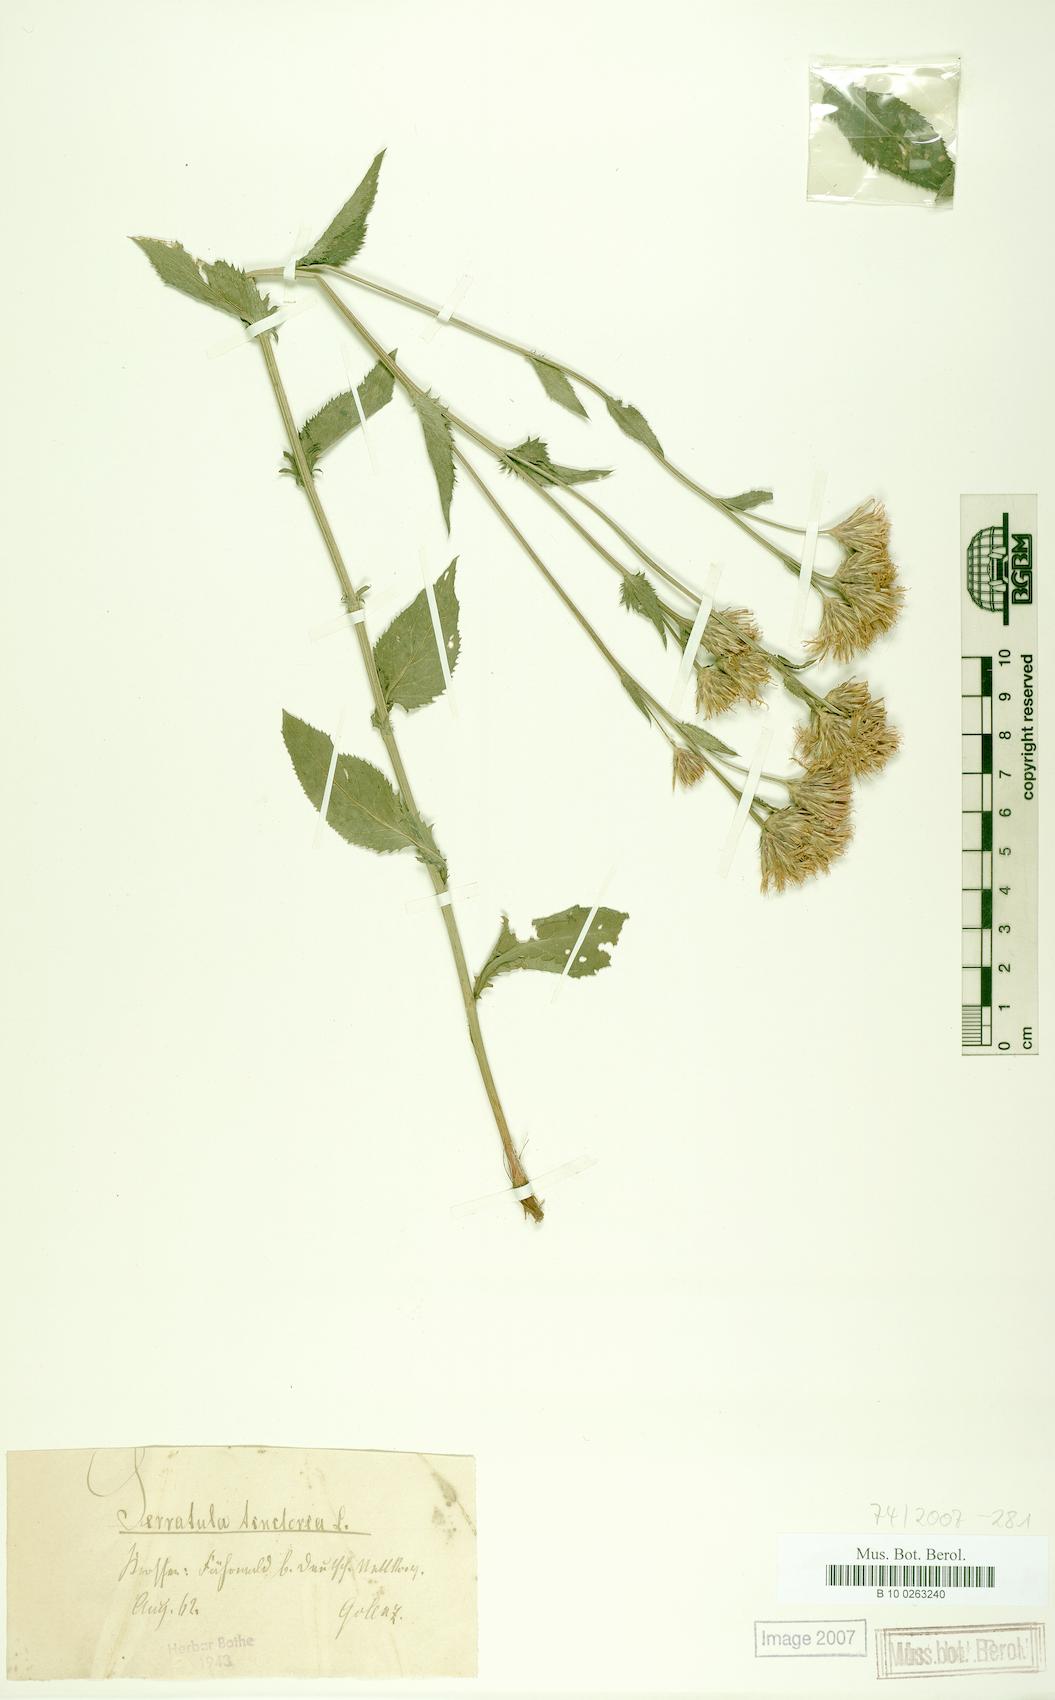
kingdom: Plantae
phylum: Tracheophyta
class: Magnoliopsida
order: Asterales
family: Asteraceae
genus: Serratula
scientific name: Serratula tinctoria
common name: Saw-wort
